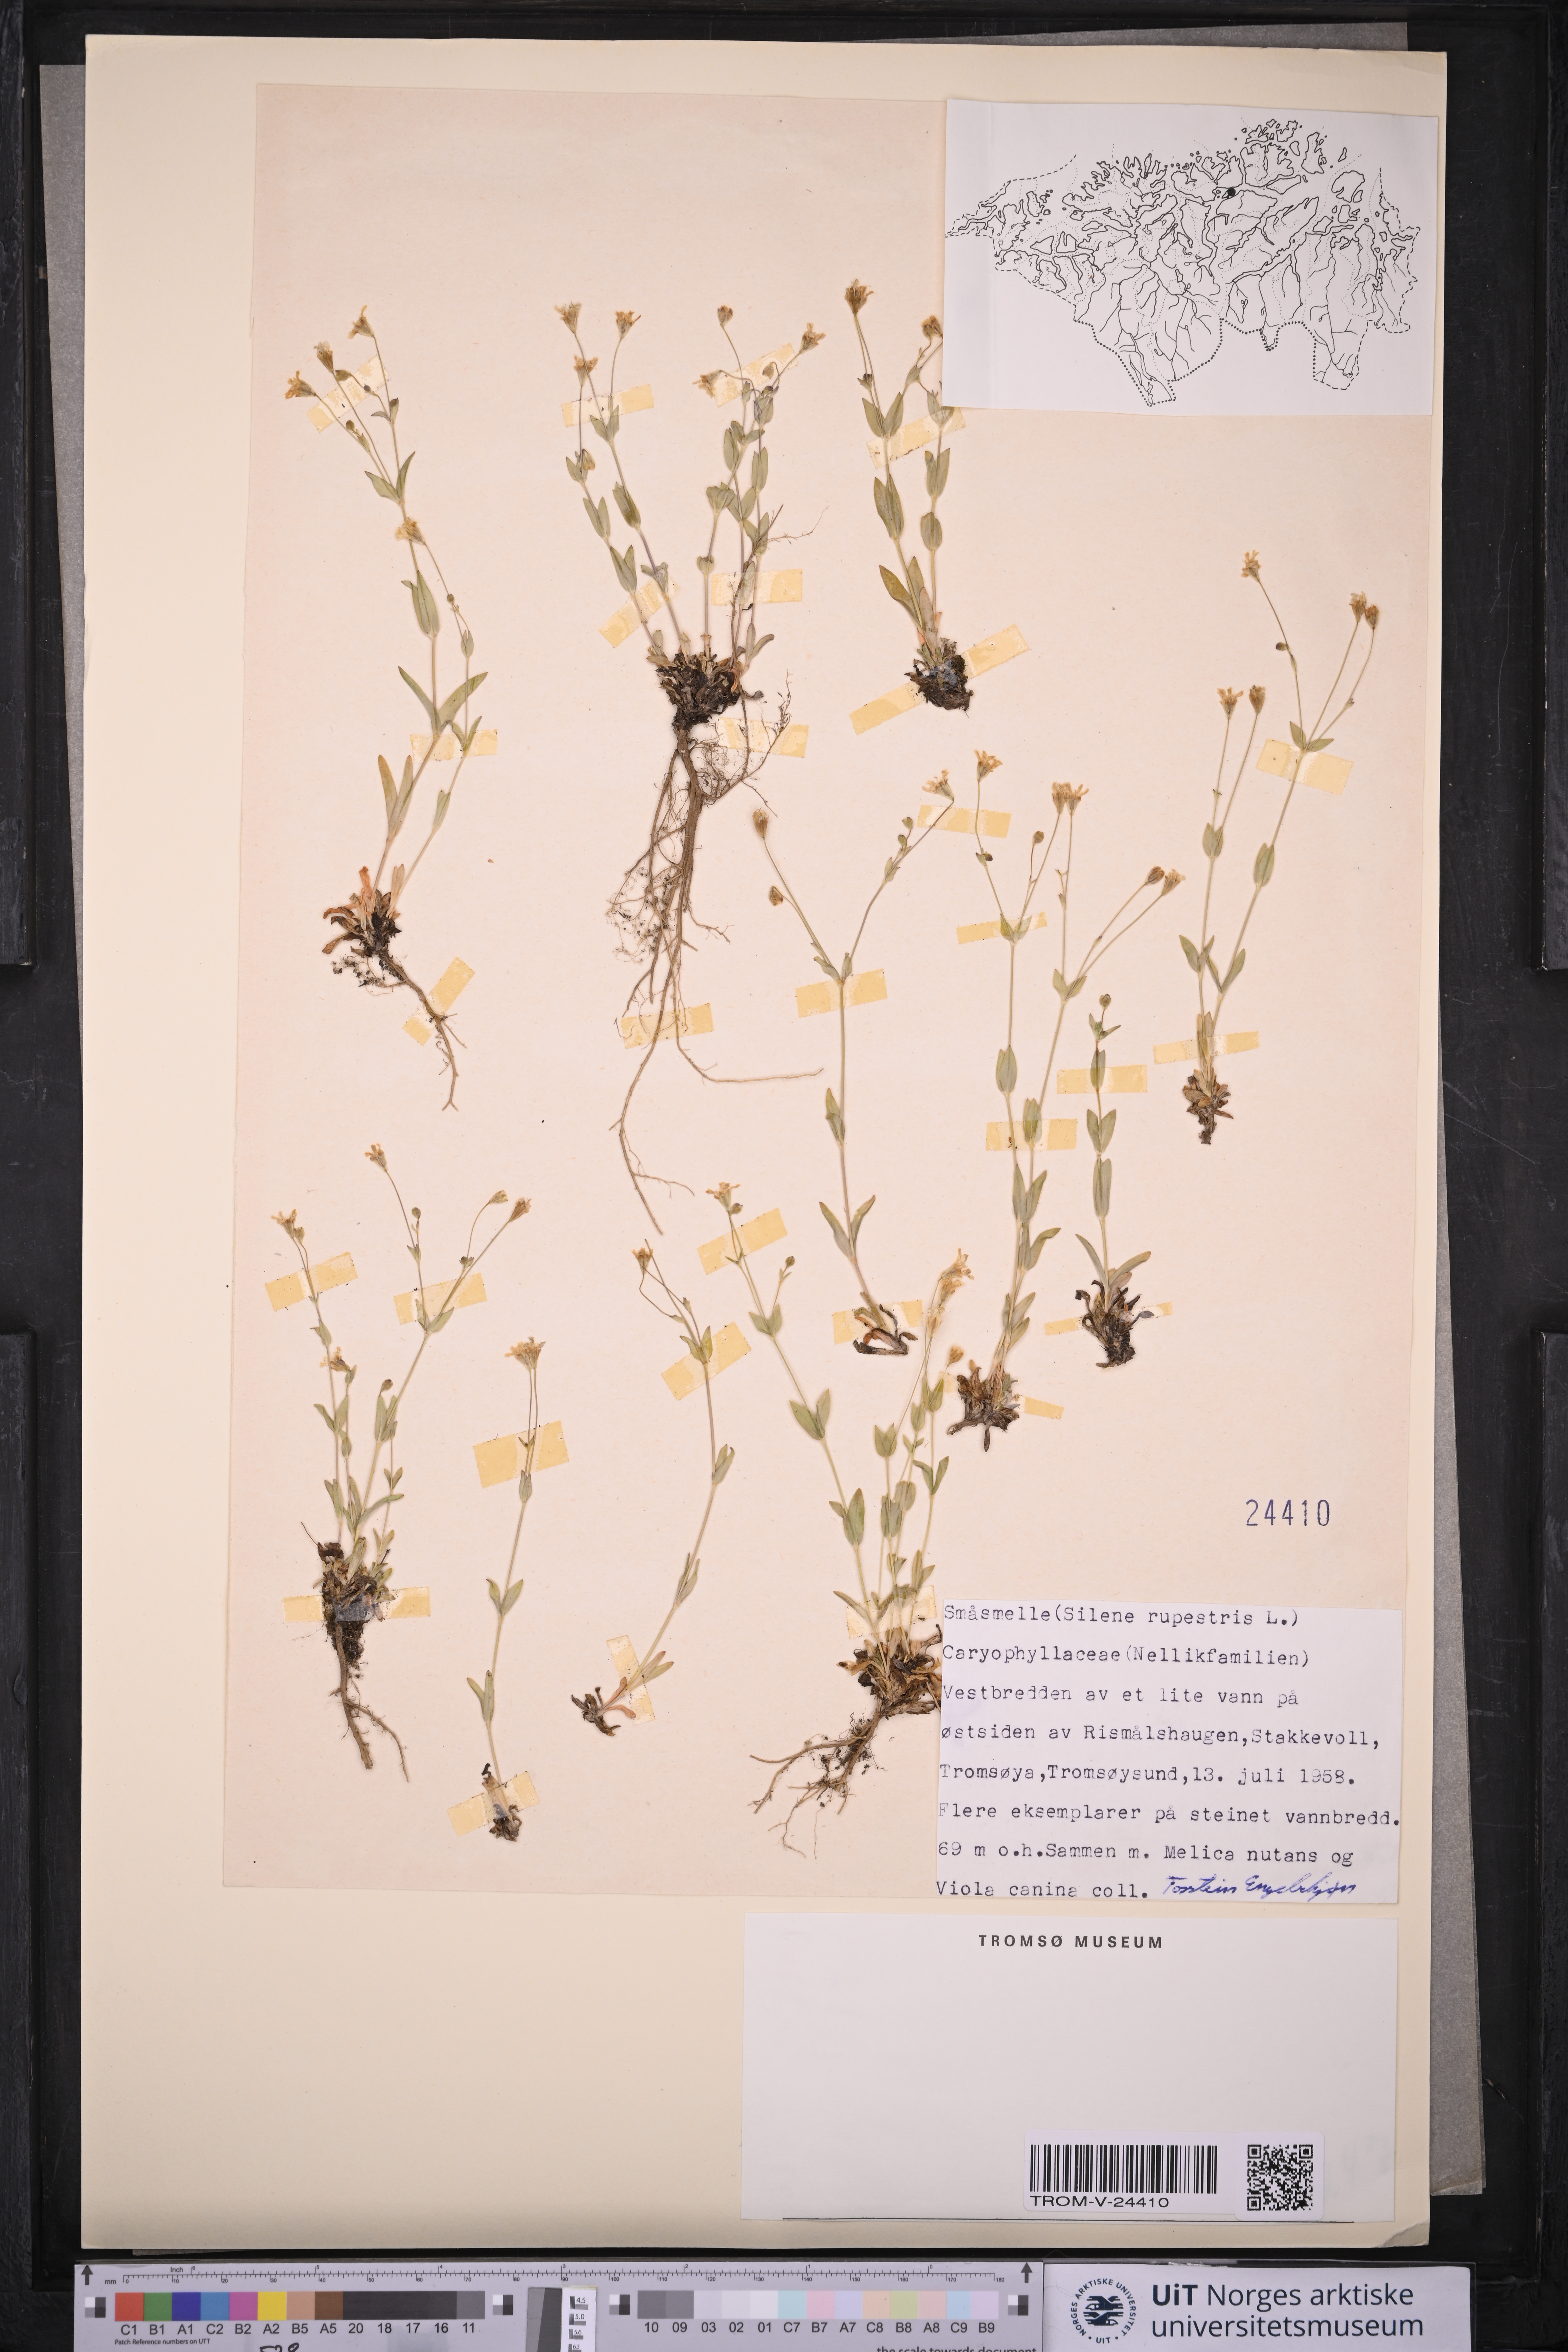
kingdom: Plantae
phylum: Tracheophyta
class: Magnoliopsida
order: Caryophyllales
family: Caryophyllaceae
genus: Atocion
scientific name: Atocion rupestre
